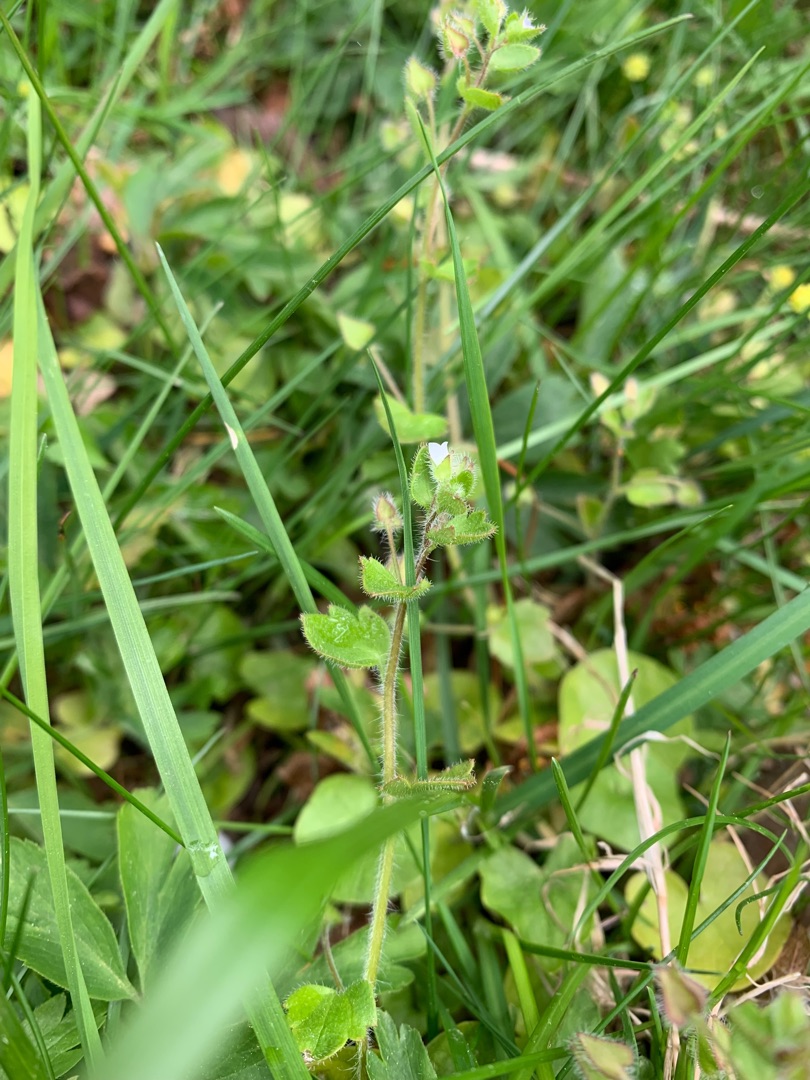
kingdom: Plantae
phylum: Tracheophyta
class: Magnoliopsida
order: Lamiales
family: Plantaginaceae
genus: Veronica
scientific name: Veronica hederifolia
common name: Vedbend-ærenpris
